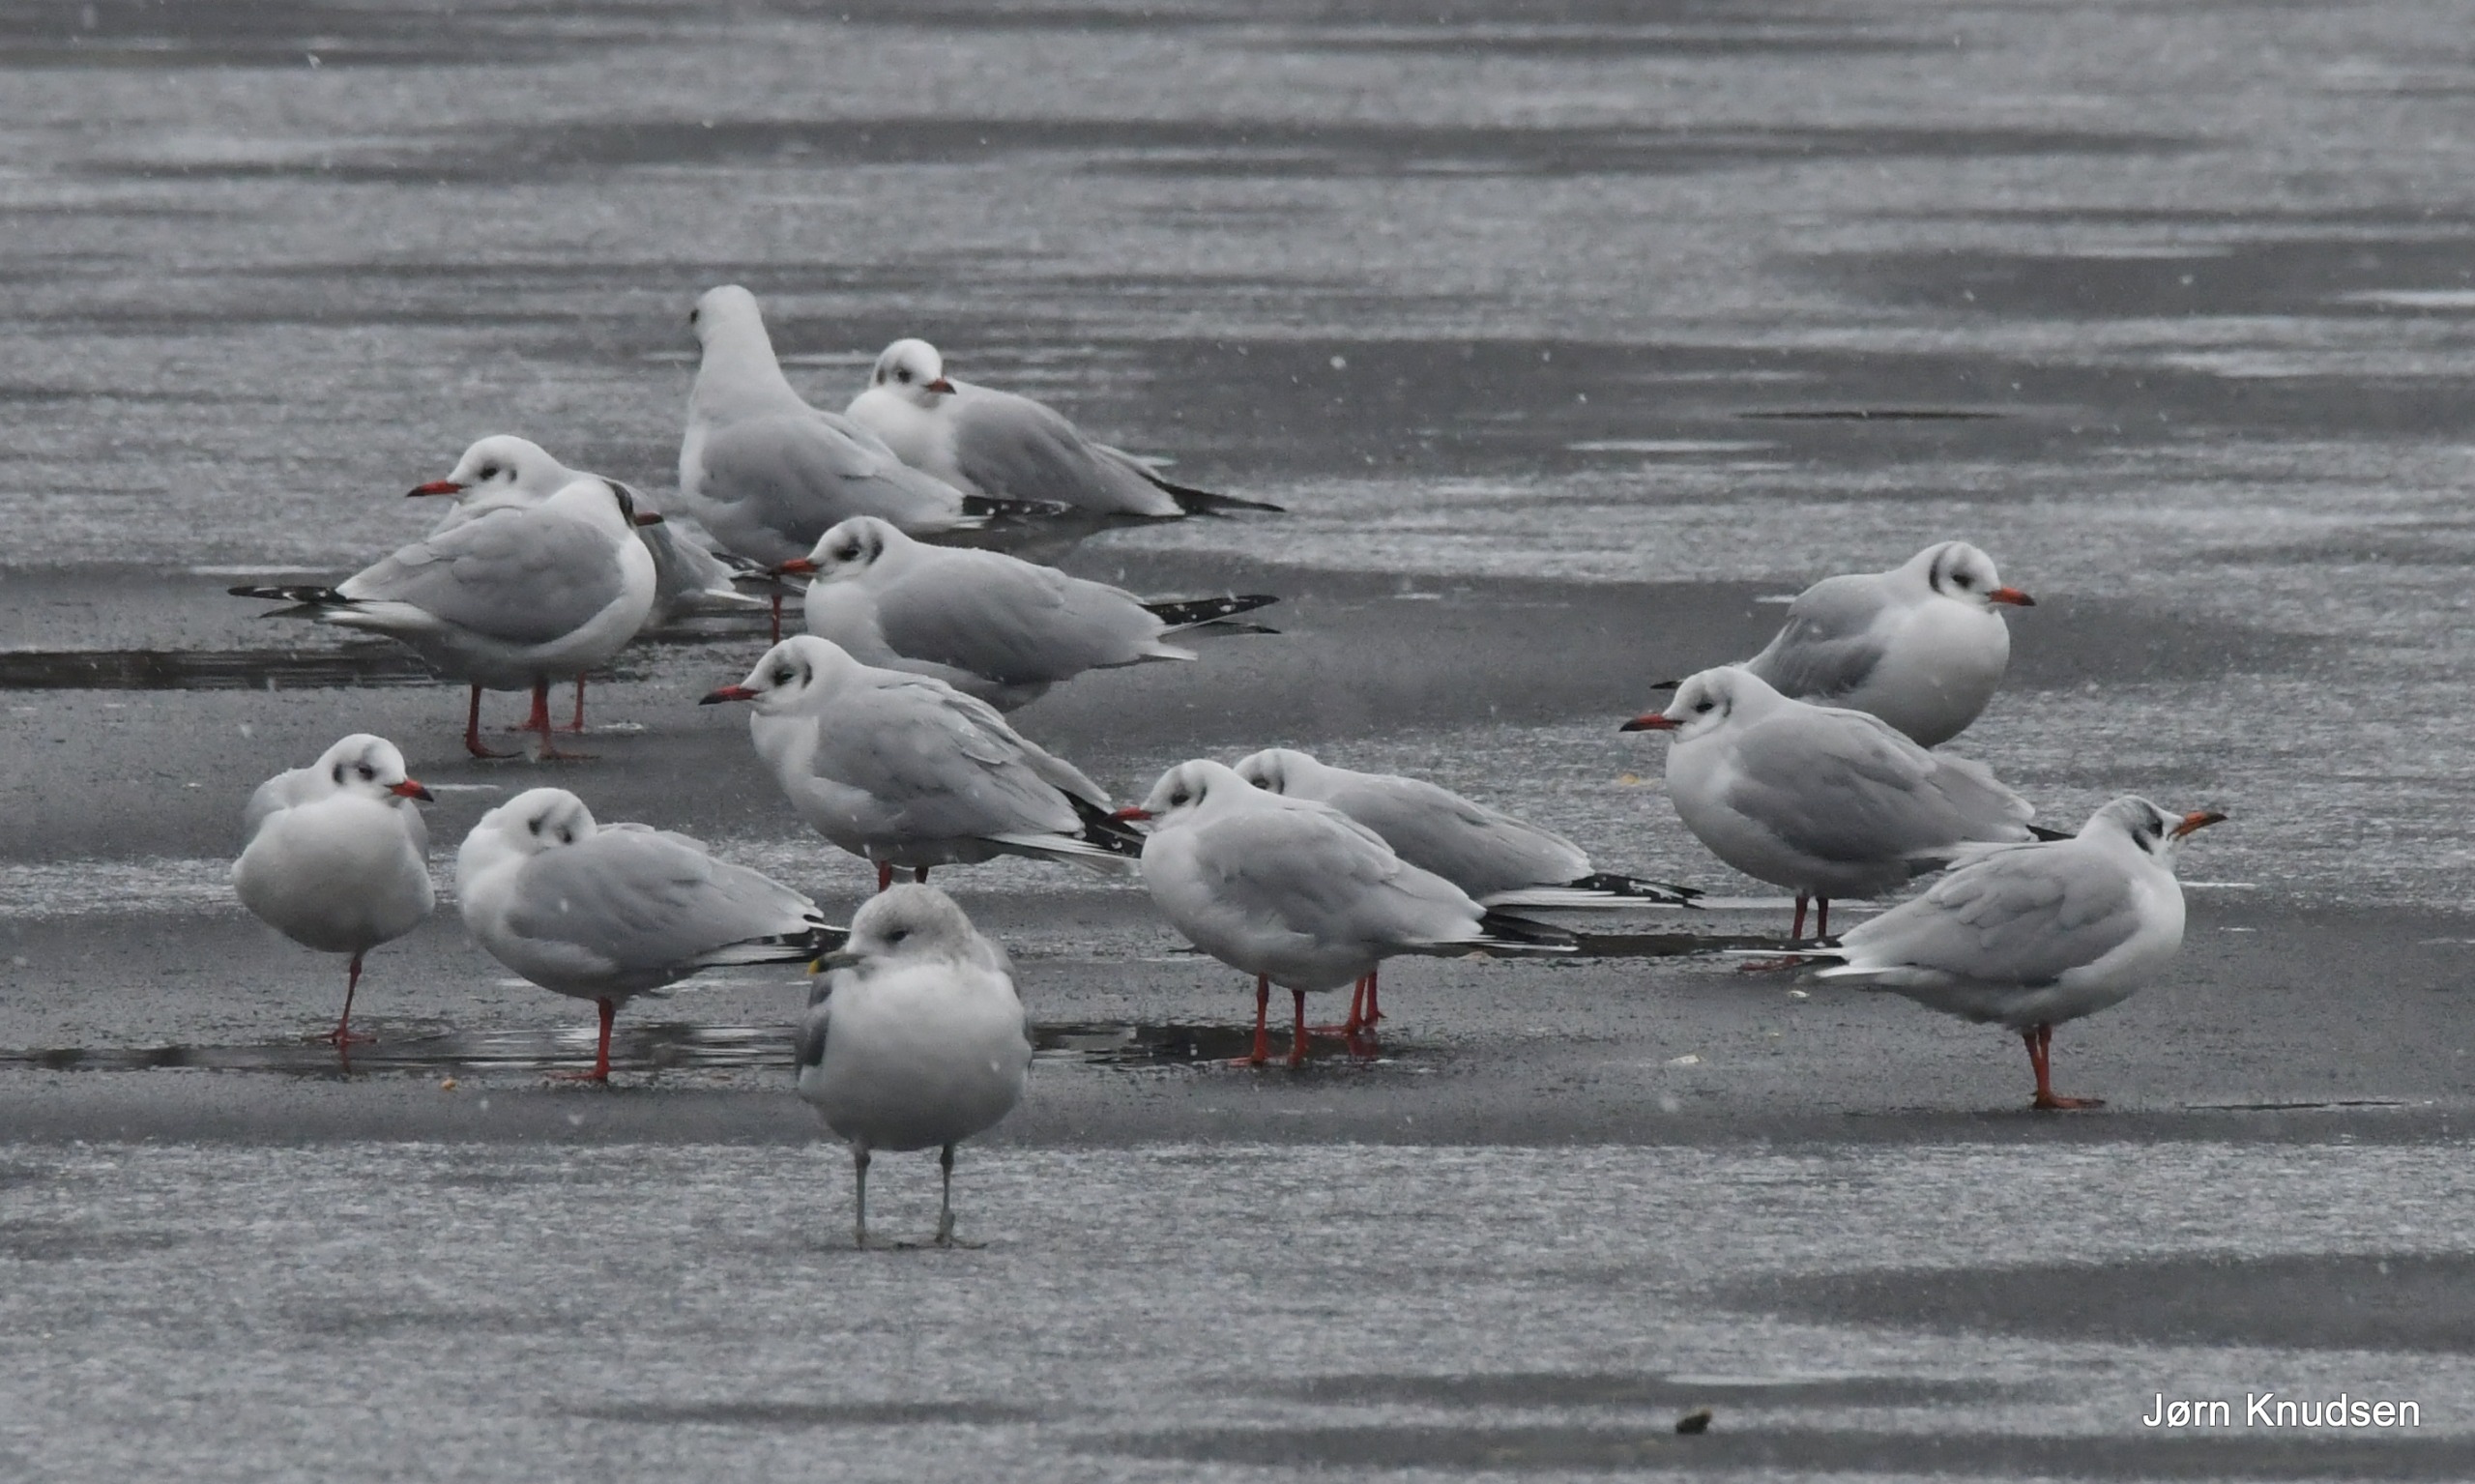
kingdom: Animalia
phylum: Chordata
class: Aves
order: Charadriiformes
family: Laridae
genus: Chroicocephalus
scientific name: Chroicocephalus ridibundus
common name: Hættemåge
